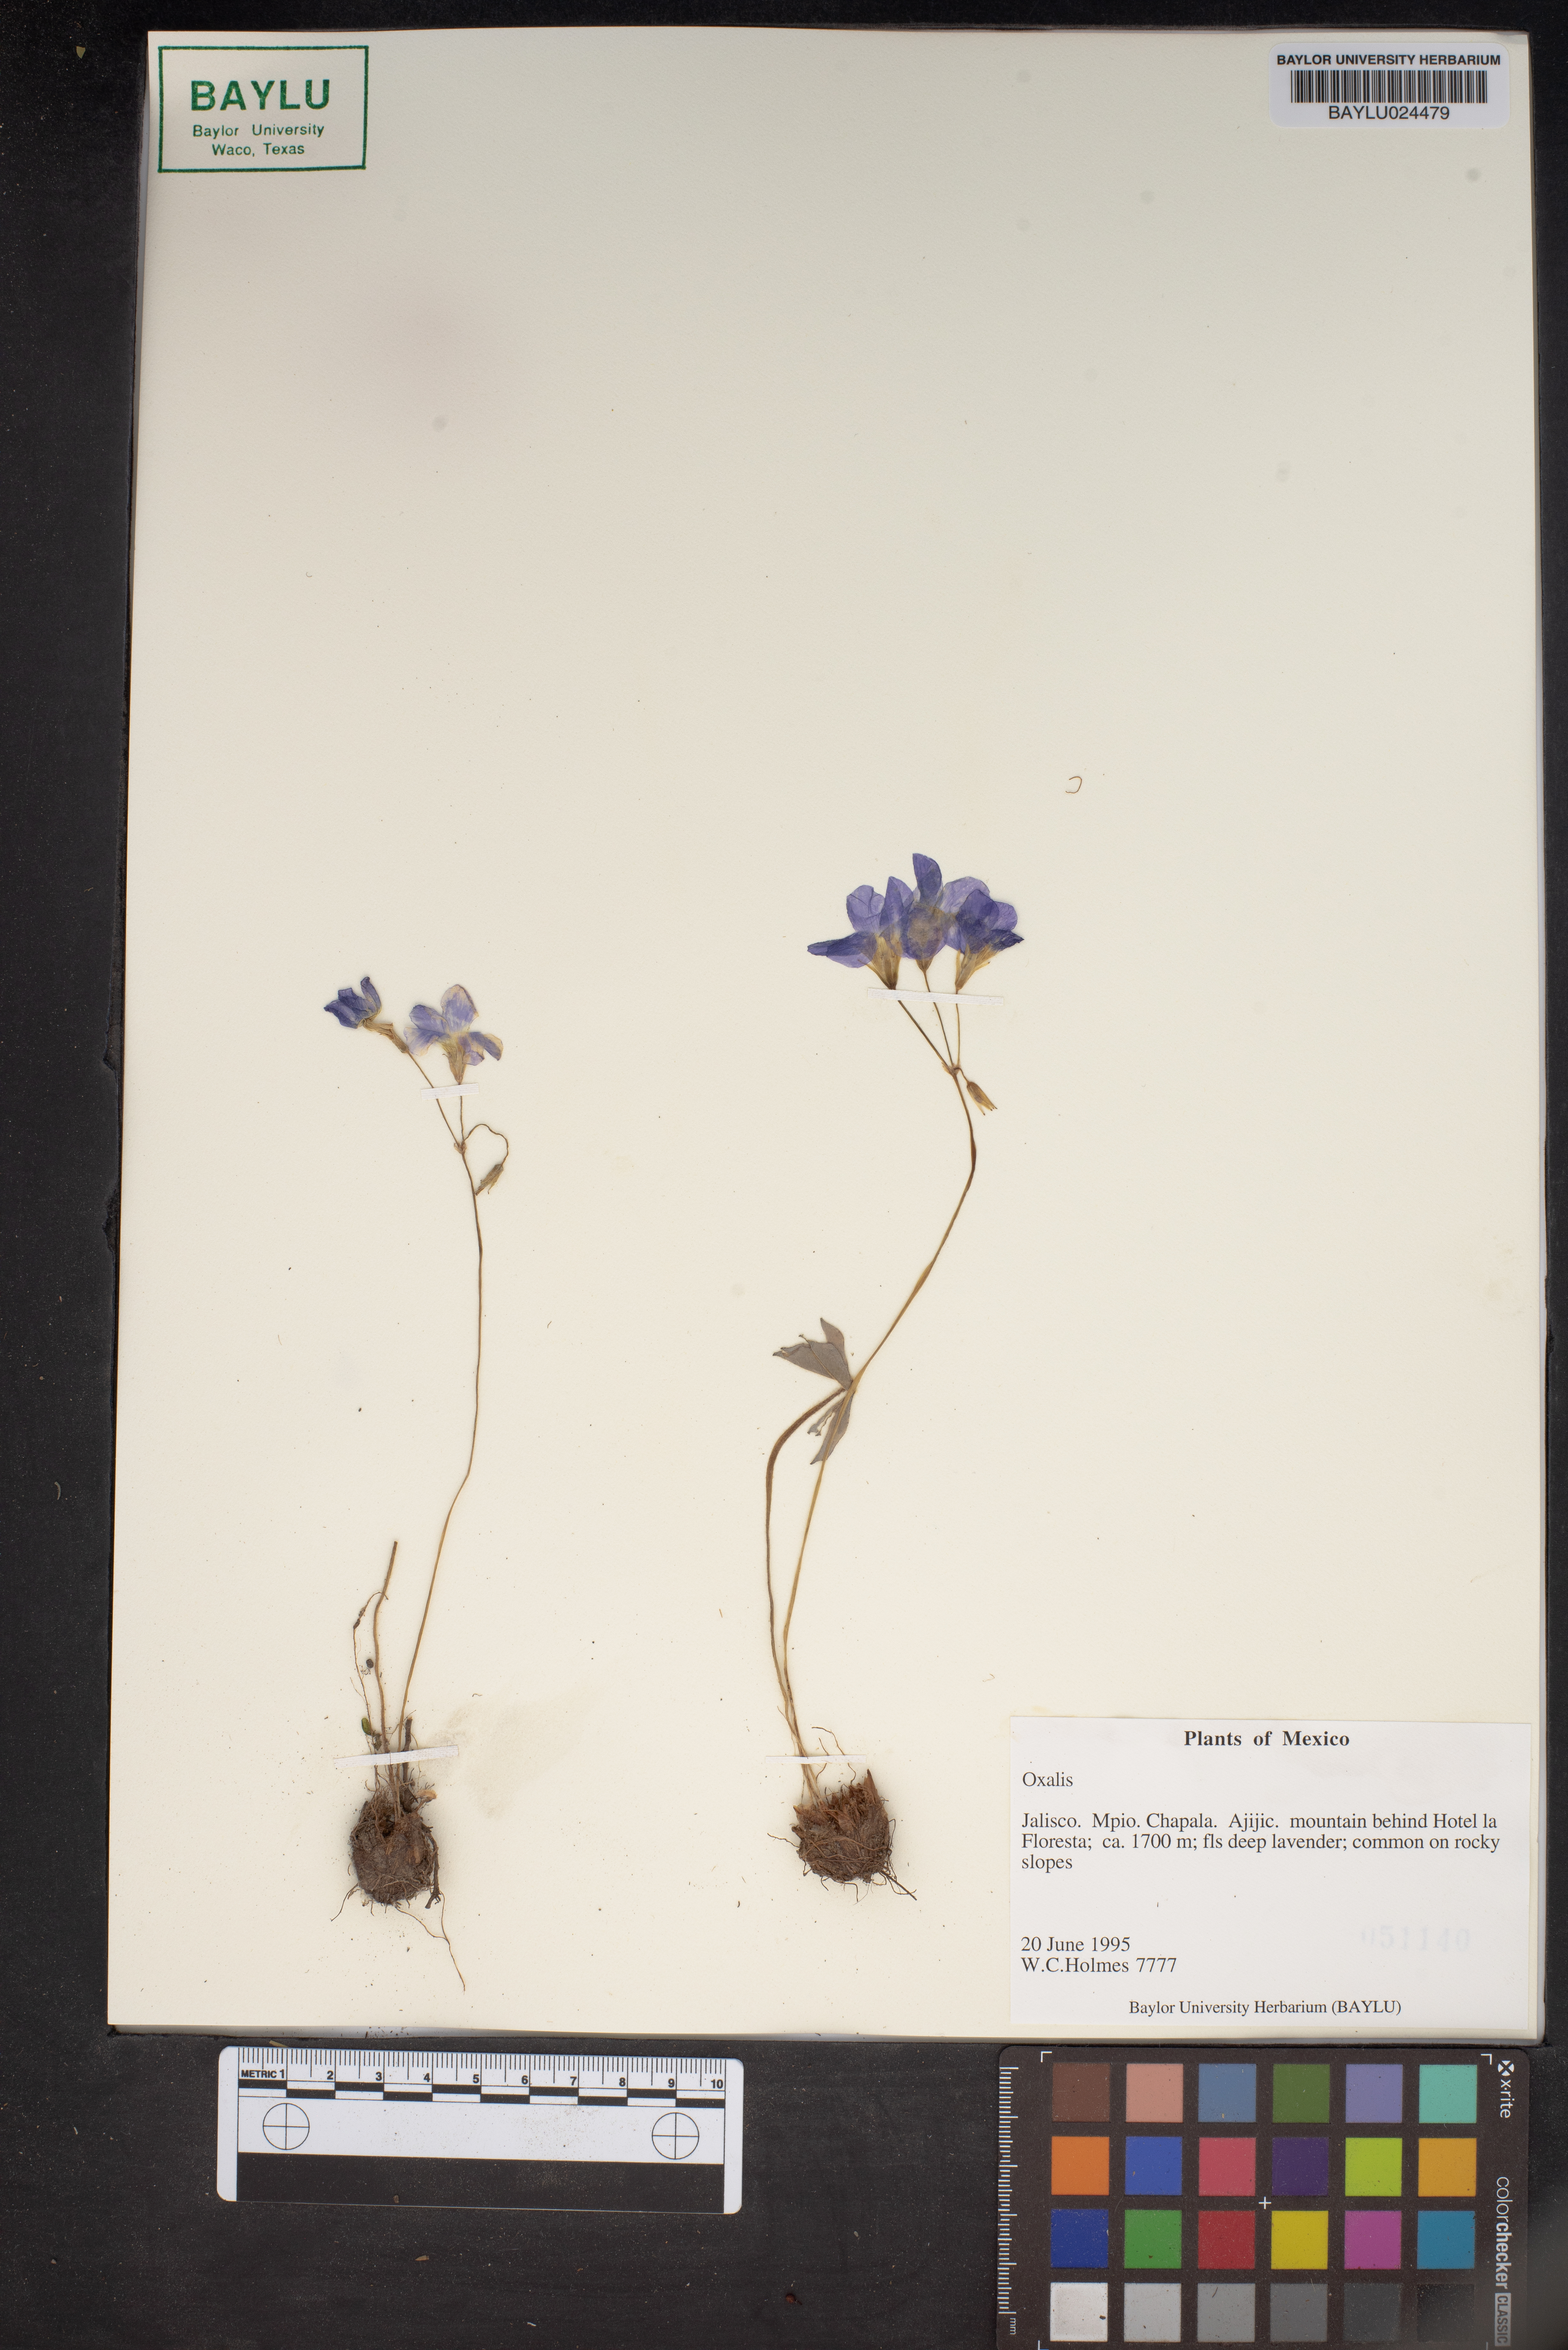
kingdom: Plantae
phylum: Tracheophyta
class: Magnoliopsida
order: Oxalidales
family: Oxalidaceae
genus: Oxalis
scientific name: Oxalis
